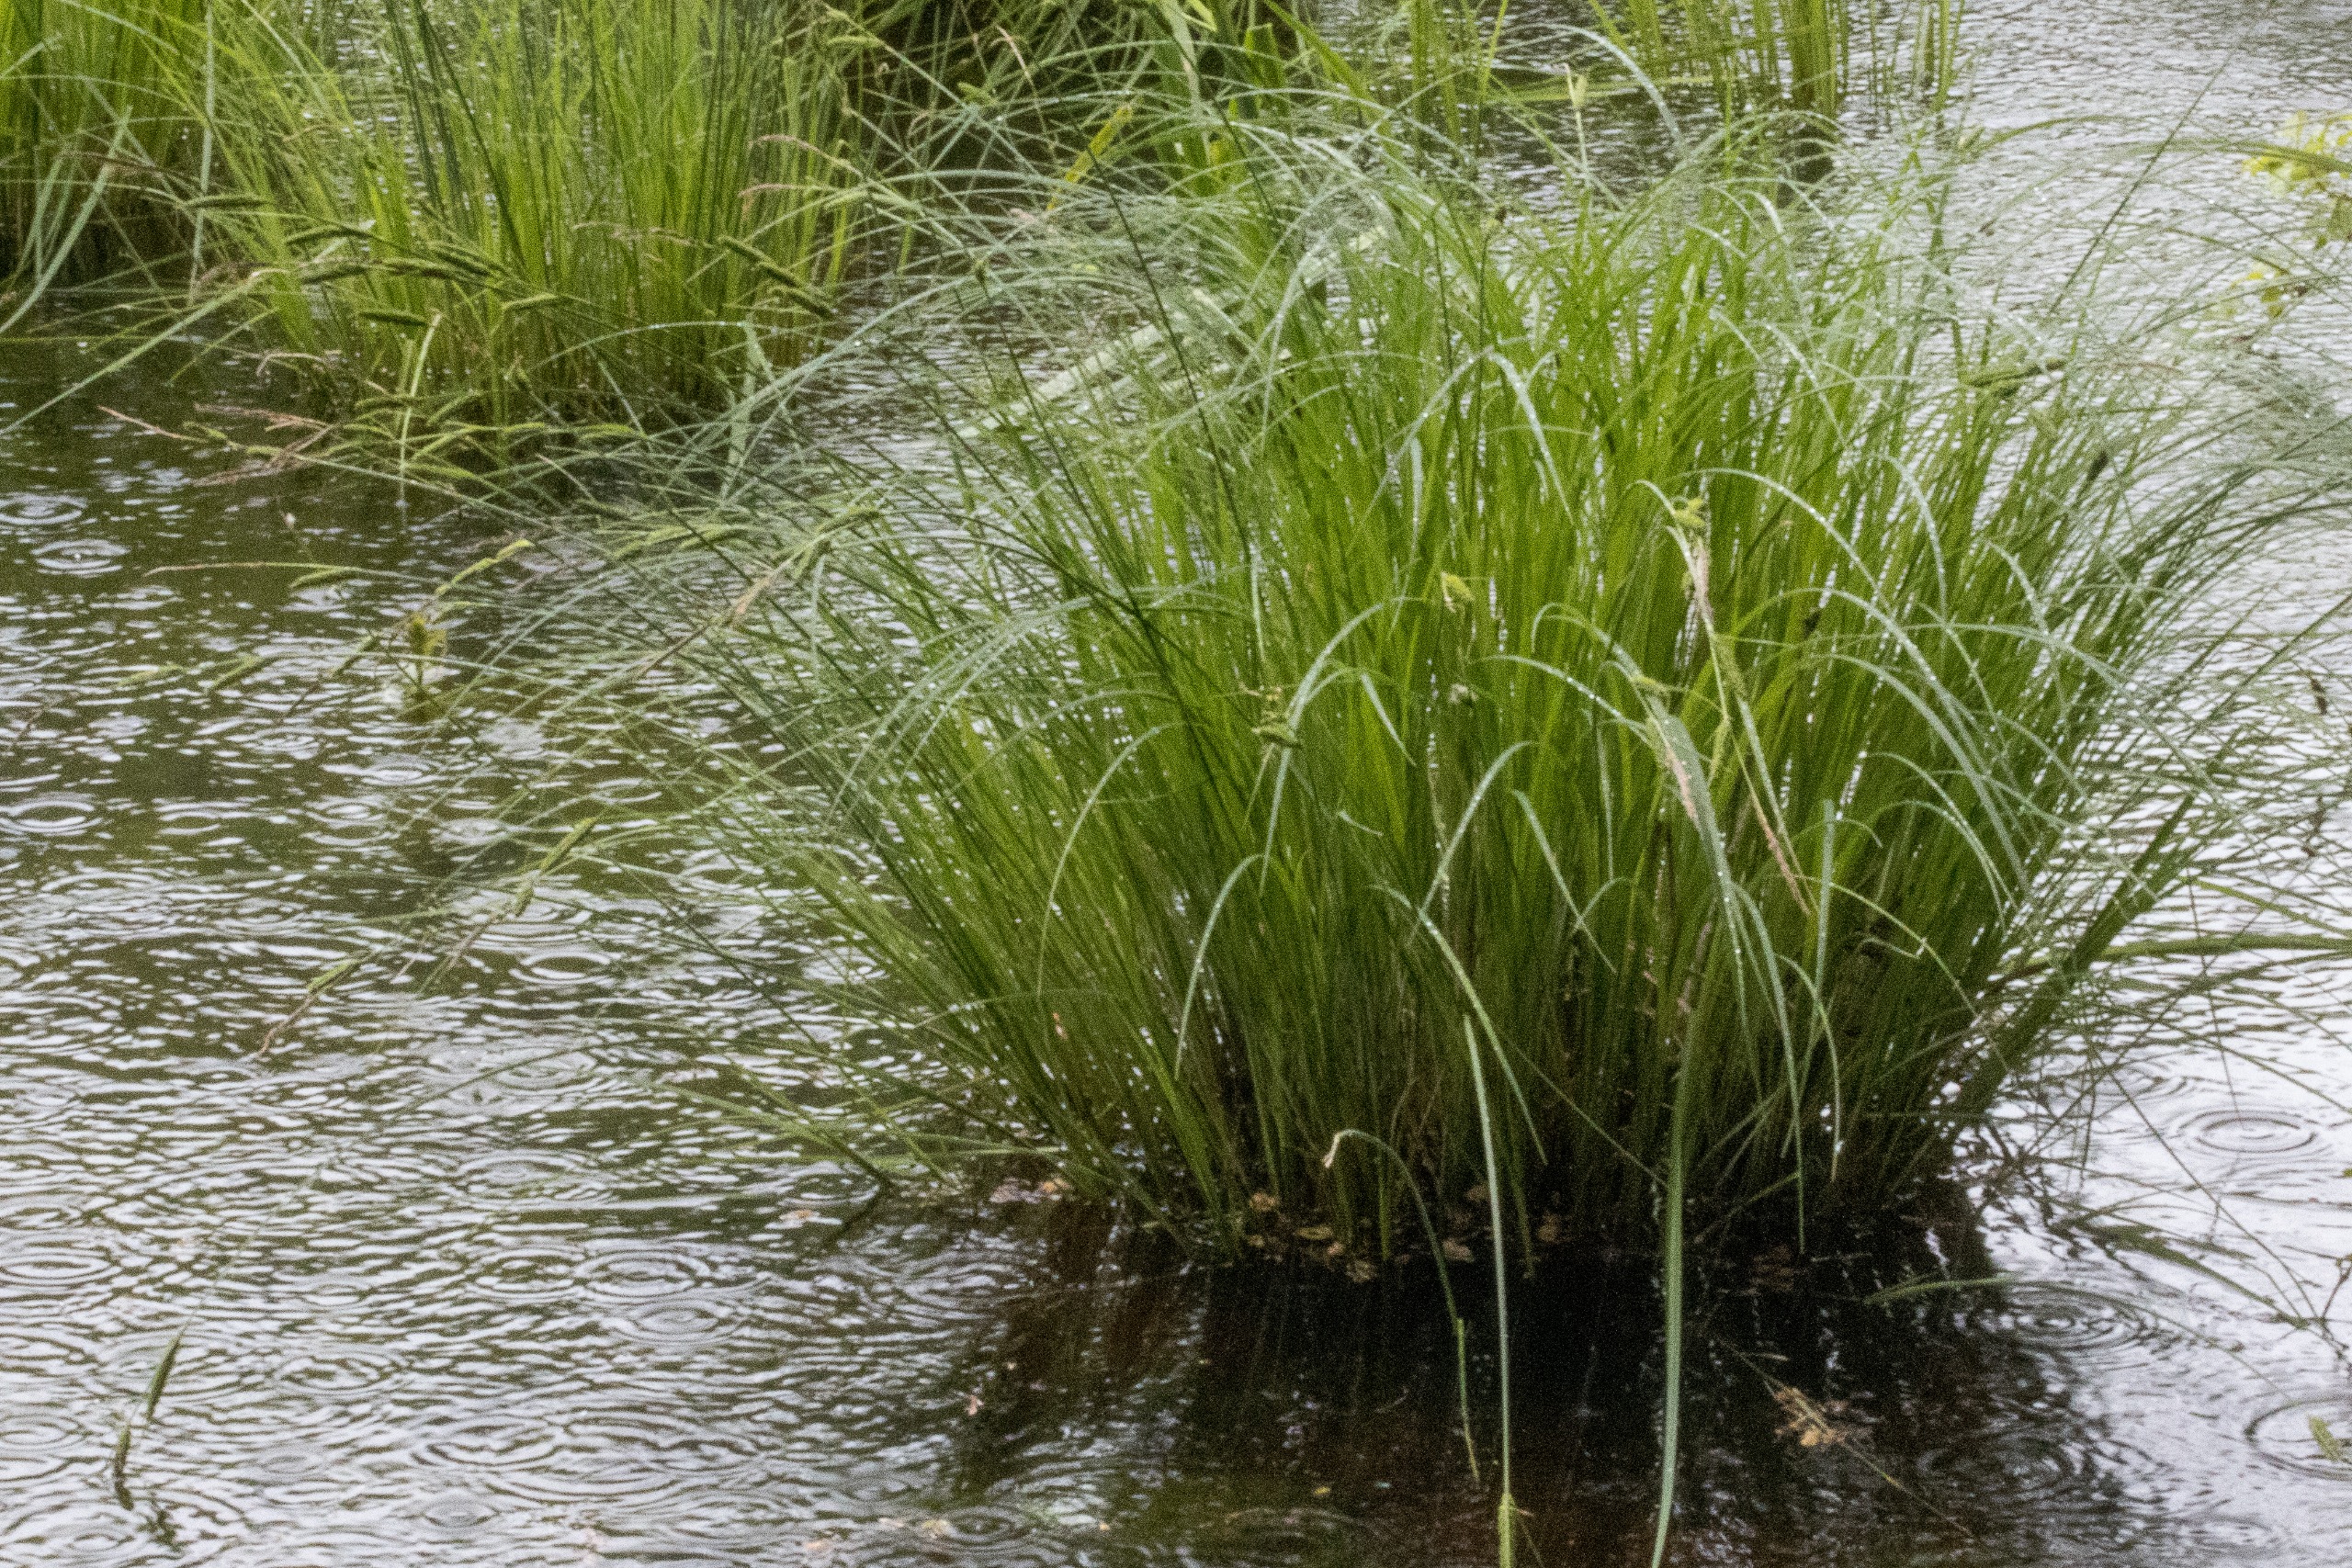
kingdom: Plantae
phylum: Tracheophyta
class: Liliopsida
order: Poales
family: Cyperaceae
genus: Carex
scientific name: Carex elata
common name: Stiv star
